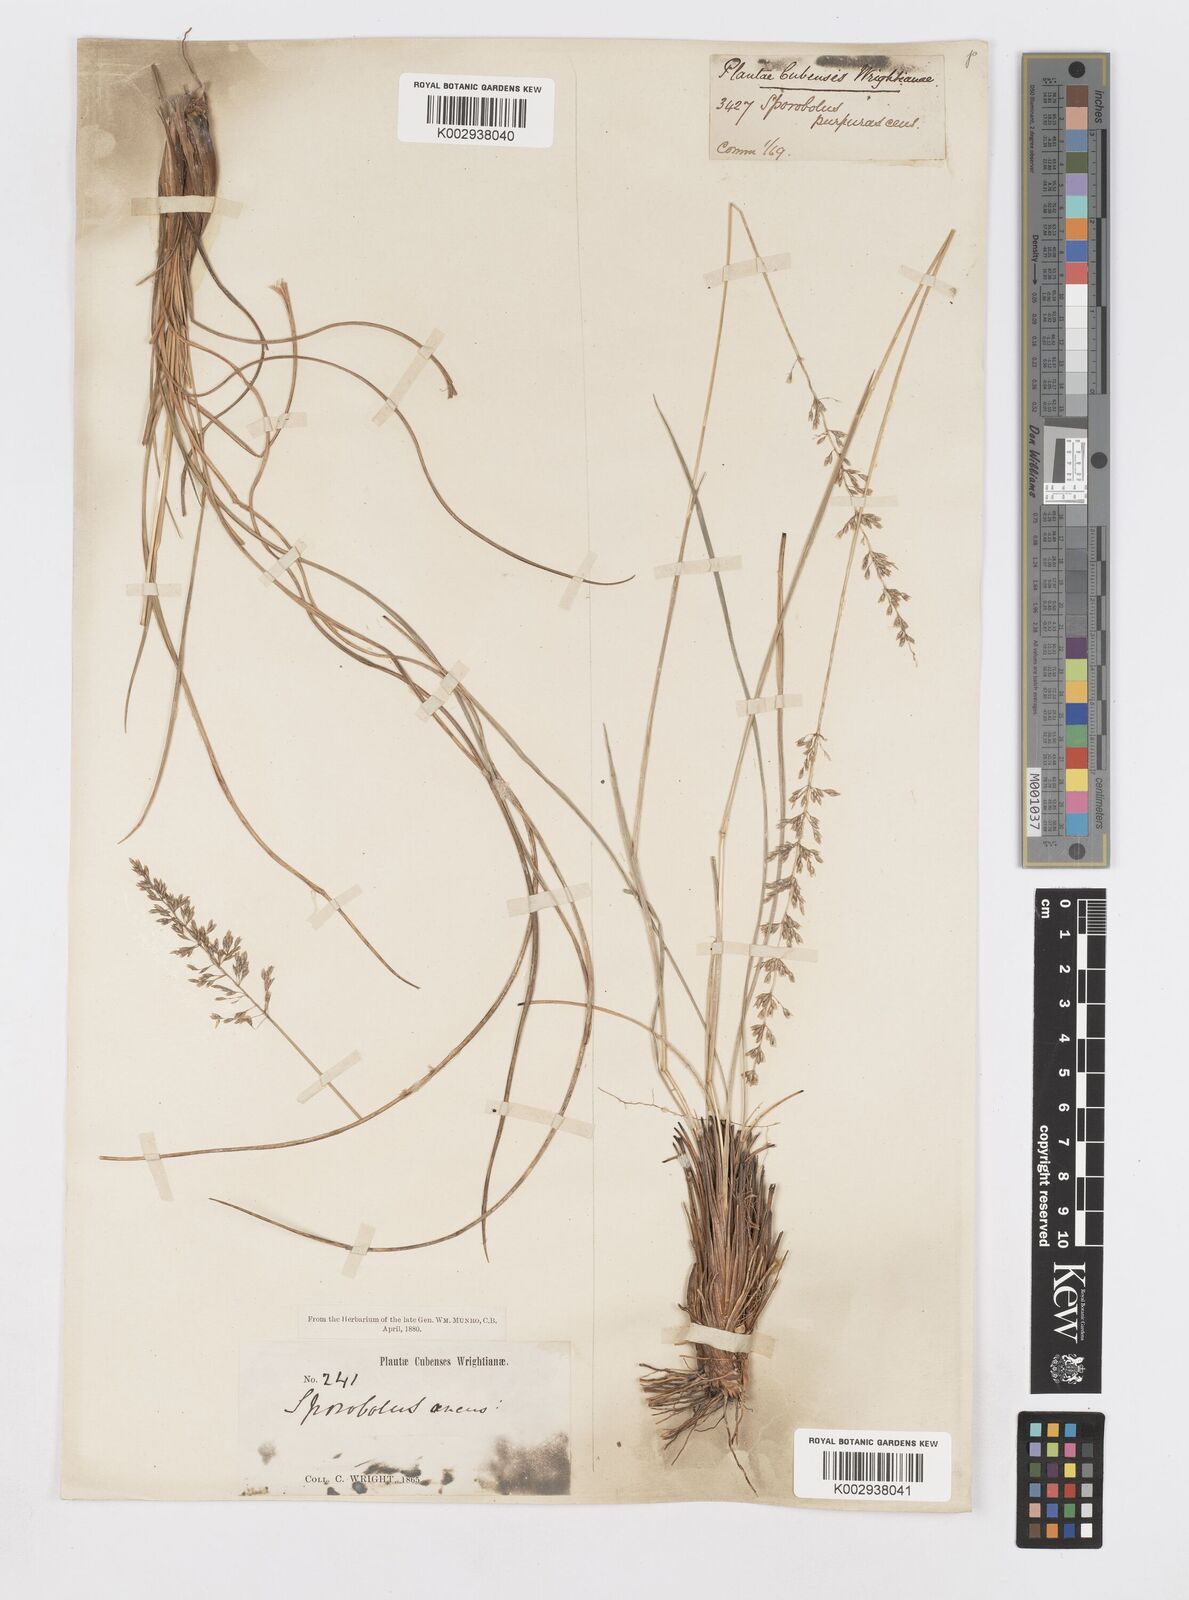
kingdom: Plantae
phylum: Tracheophyta
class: Liliopsida
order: Poales
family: Poaceae
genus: Sporobolus
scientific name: Sporobolus purpurascens
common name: Purple dropseed
